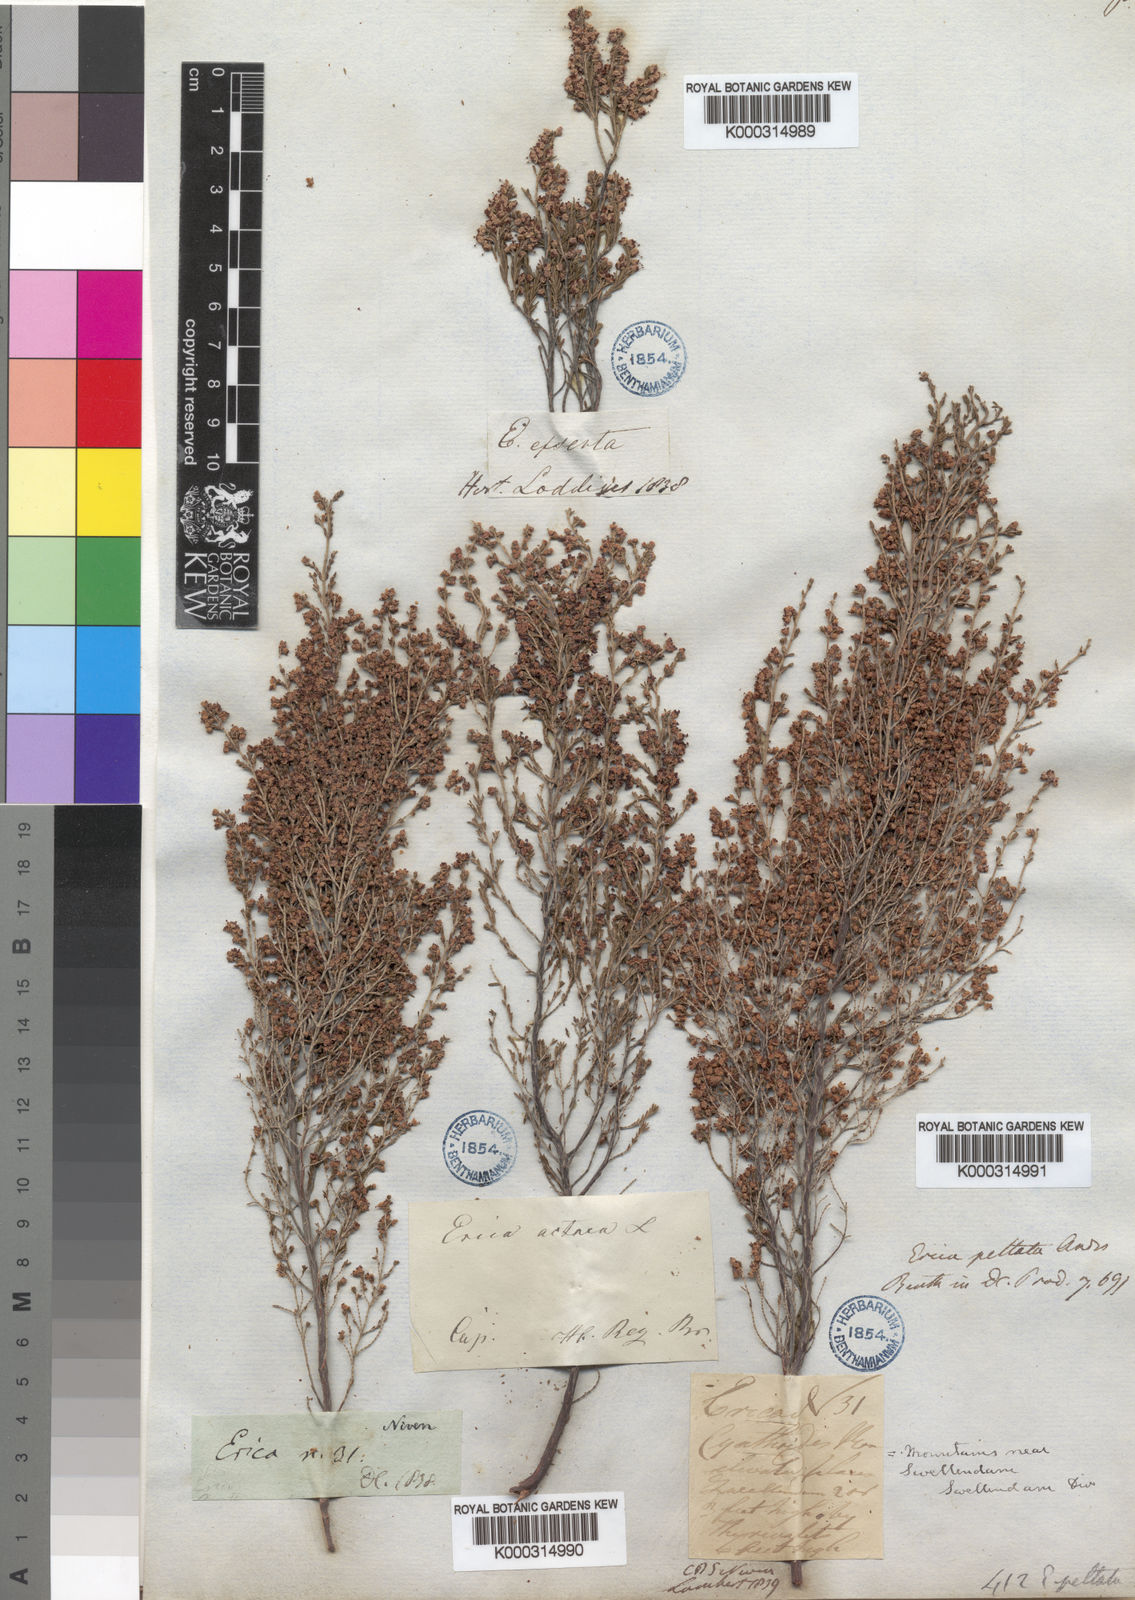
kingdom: Plantae
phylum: Tracheophyta
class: Magnoliopsida
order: Ericales
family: Ericaceae
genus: Erica
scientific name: Erica peltata
